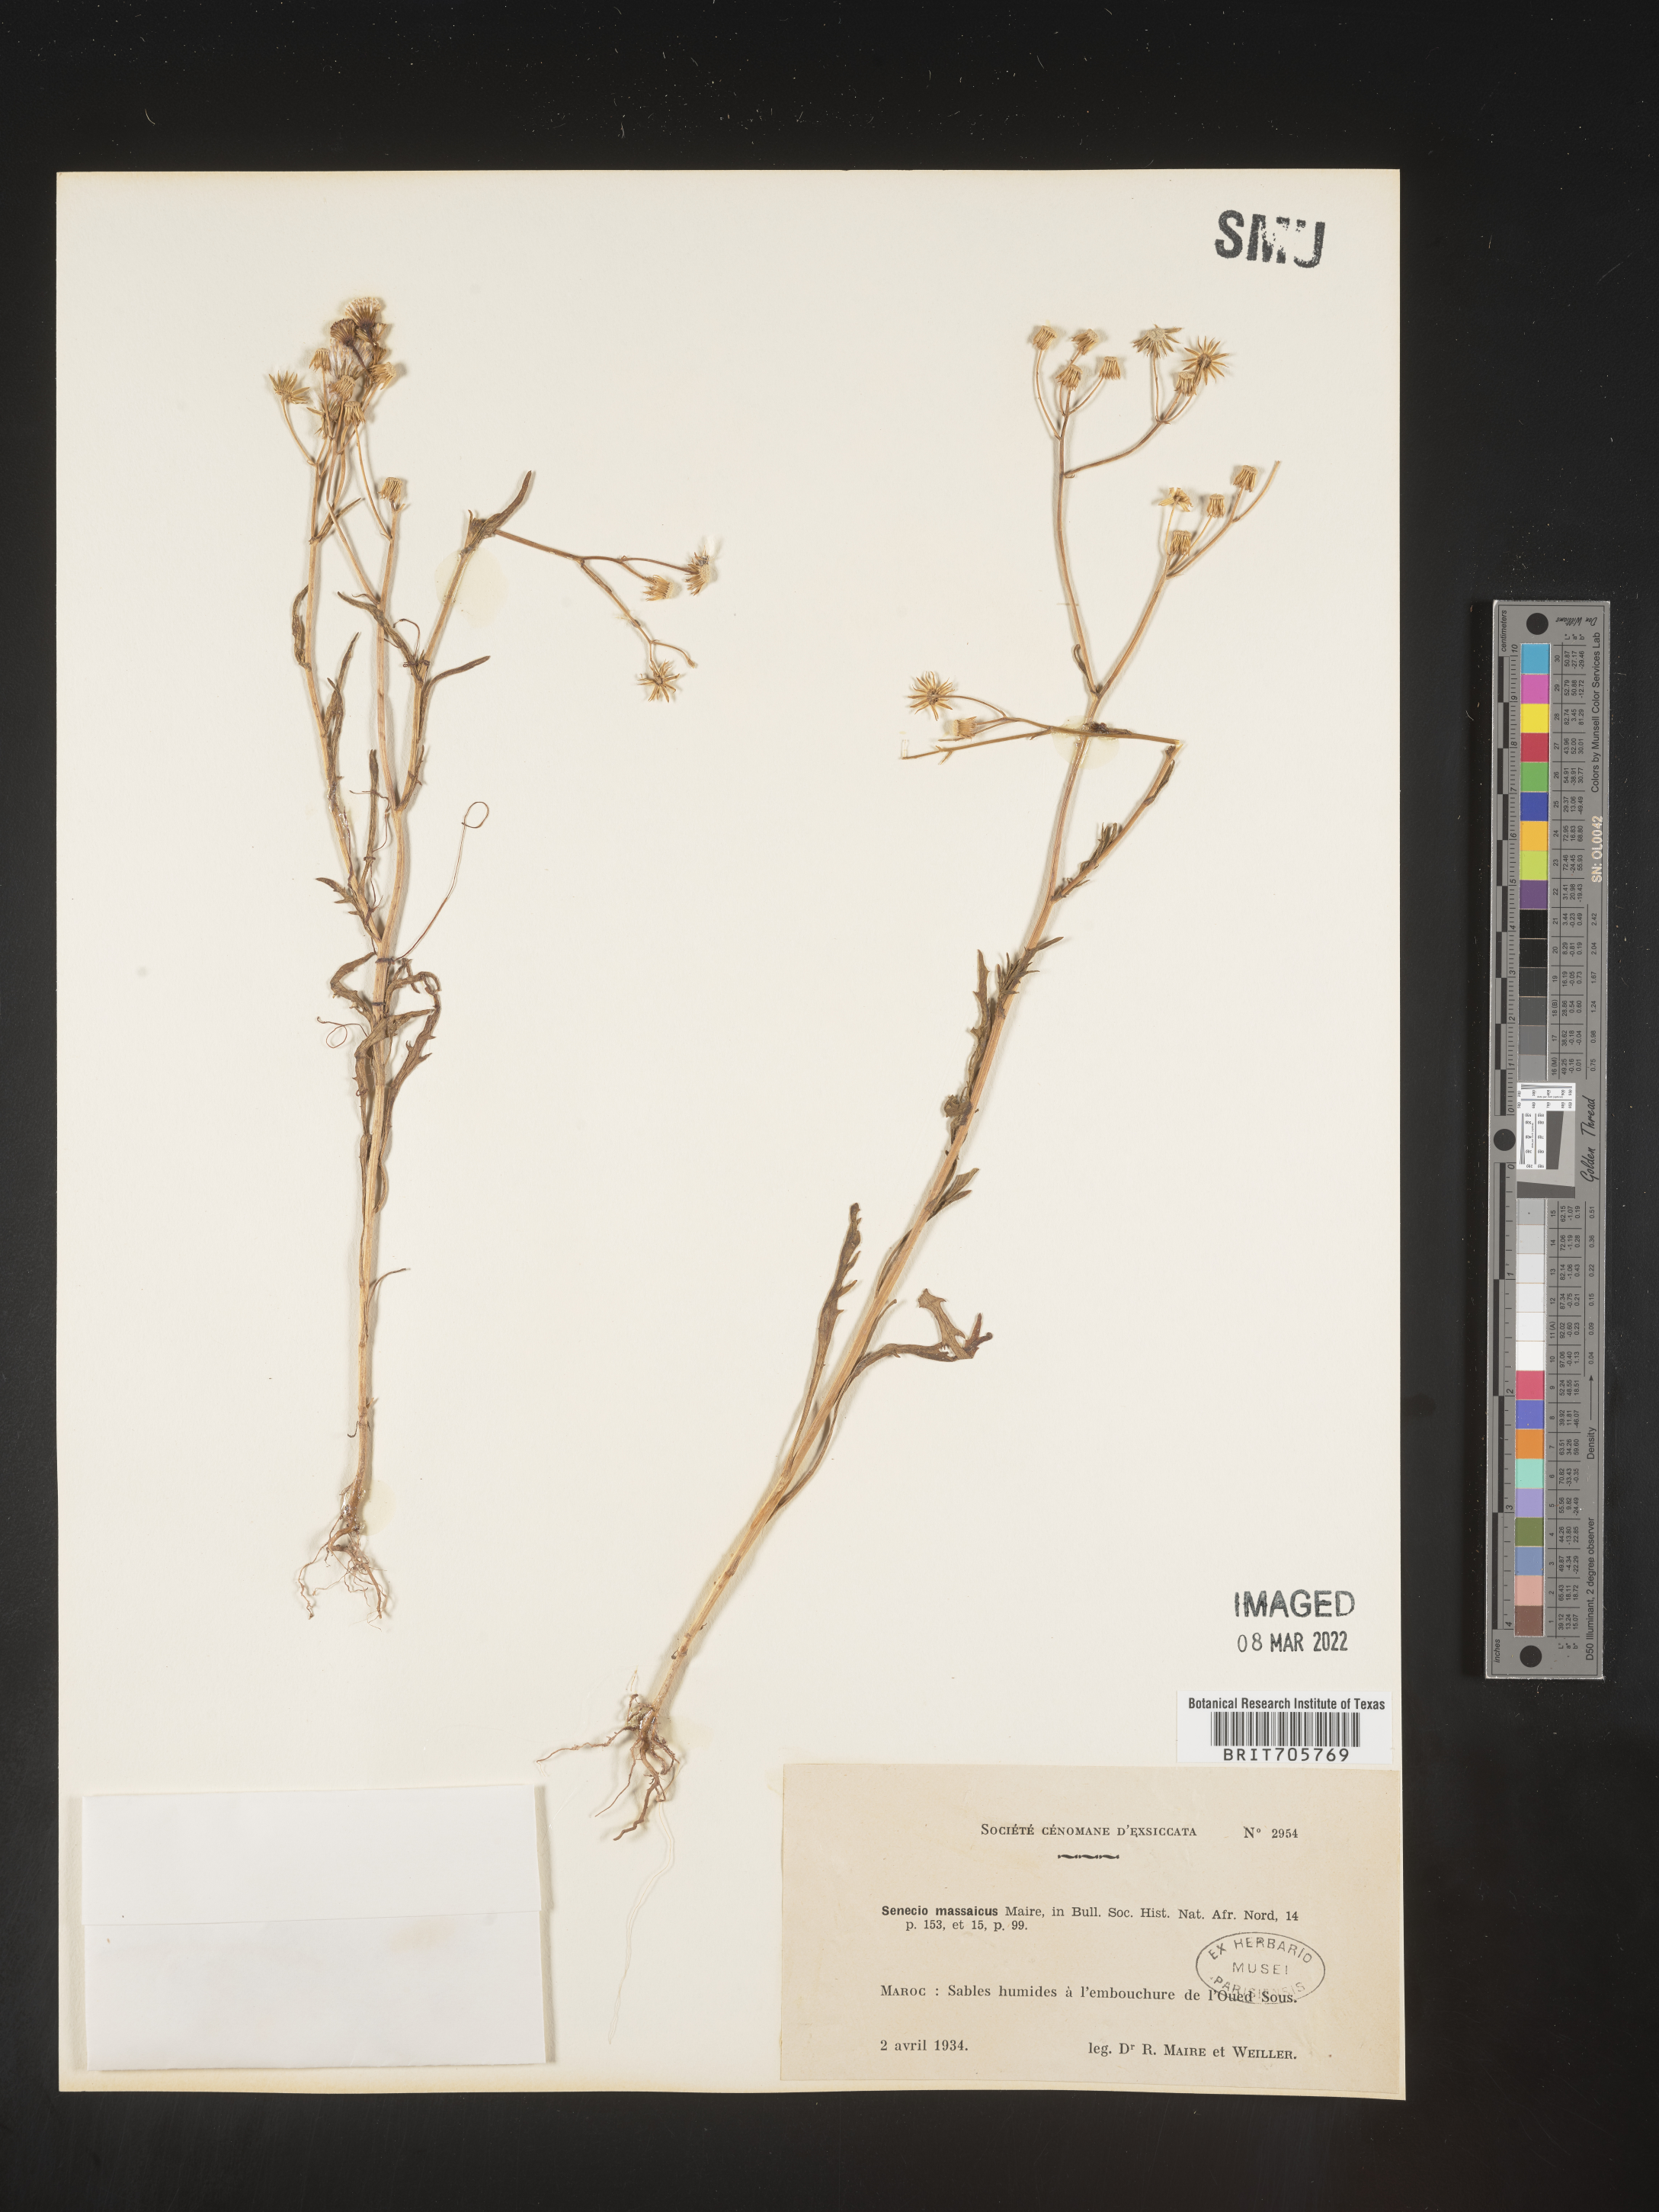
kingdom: Plantae
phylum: Tracheophyta
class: Magnoliopsida
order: Asterales
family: Asteraceae
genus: Senecio
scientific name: Senecio
